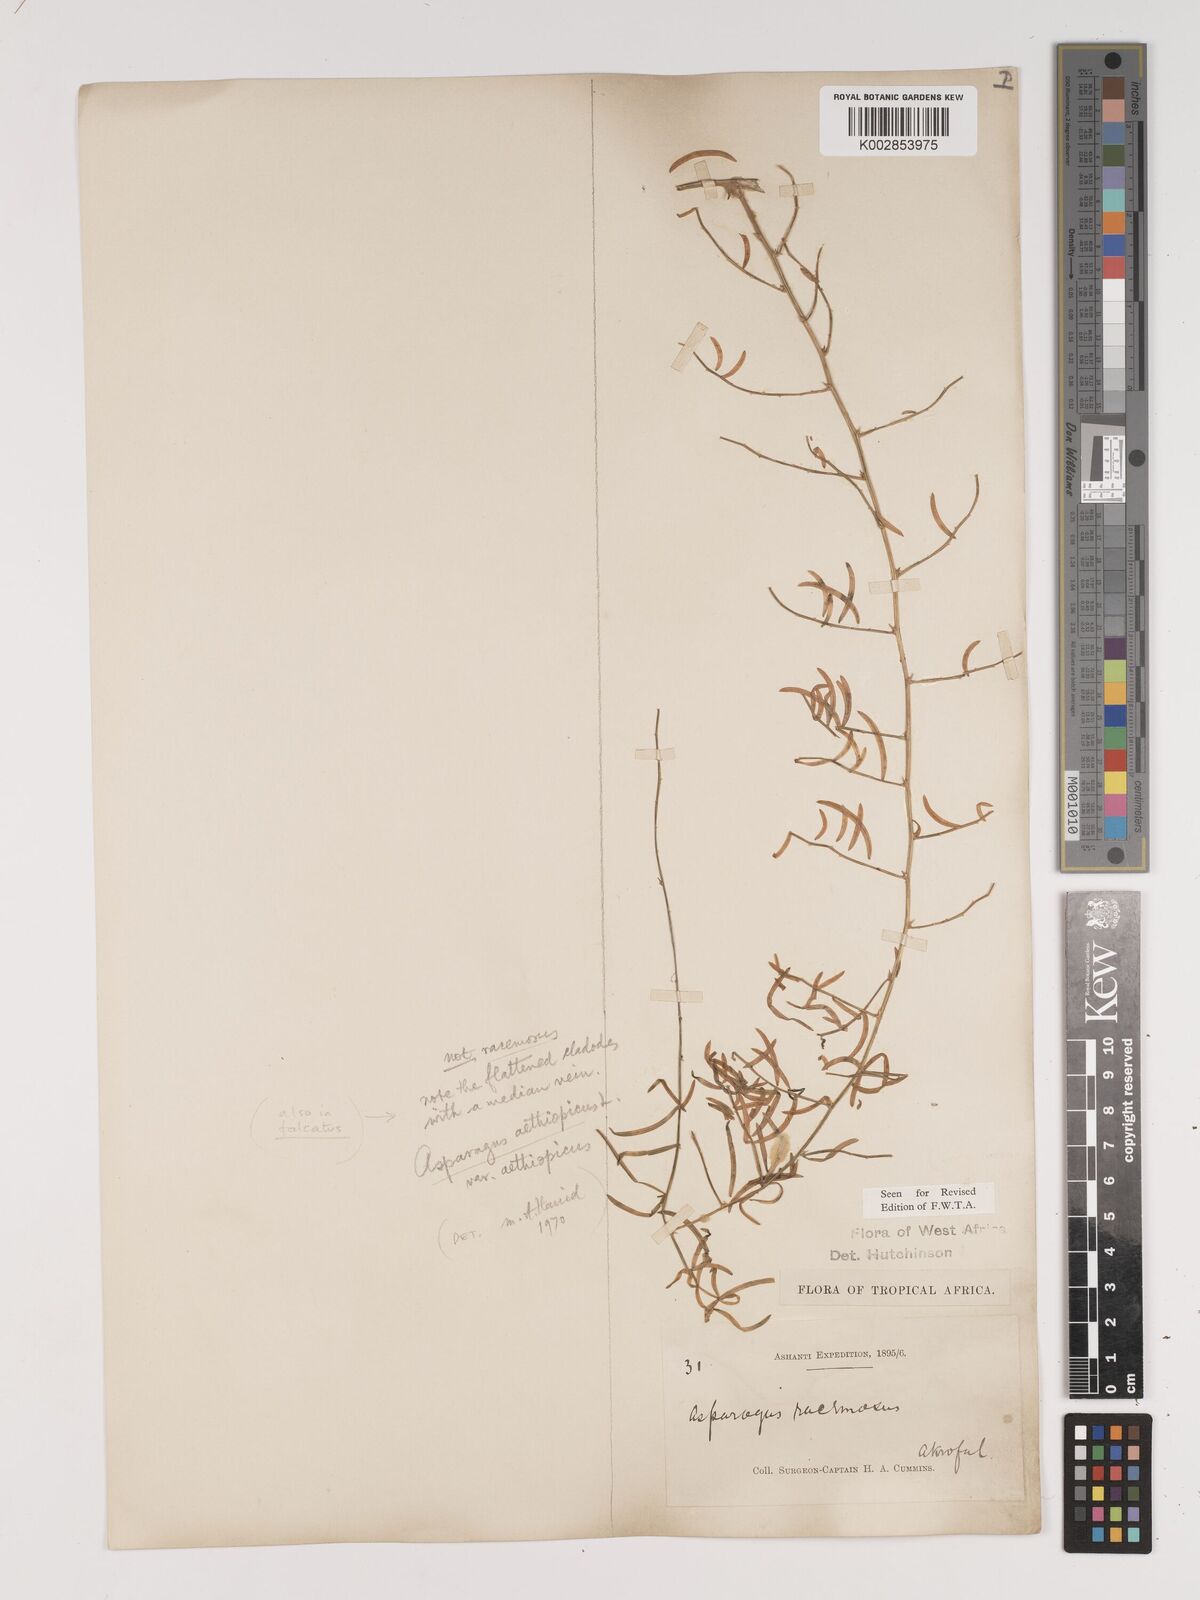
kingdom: Plantae
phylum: Tracheophyta
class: Liliopsida
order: Asparagales
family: Asparagaceae
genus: Asparagus
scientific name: Asparagus aethiopicus
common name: Sprenger's asparagus fern
